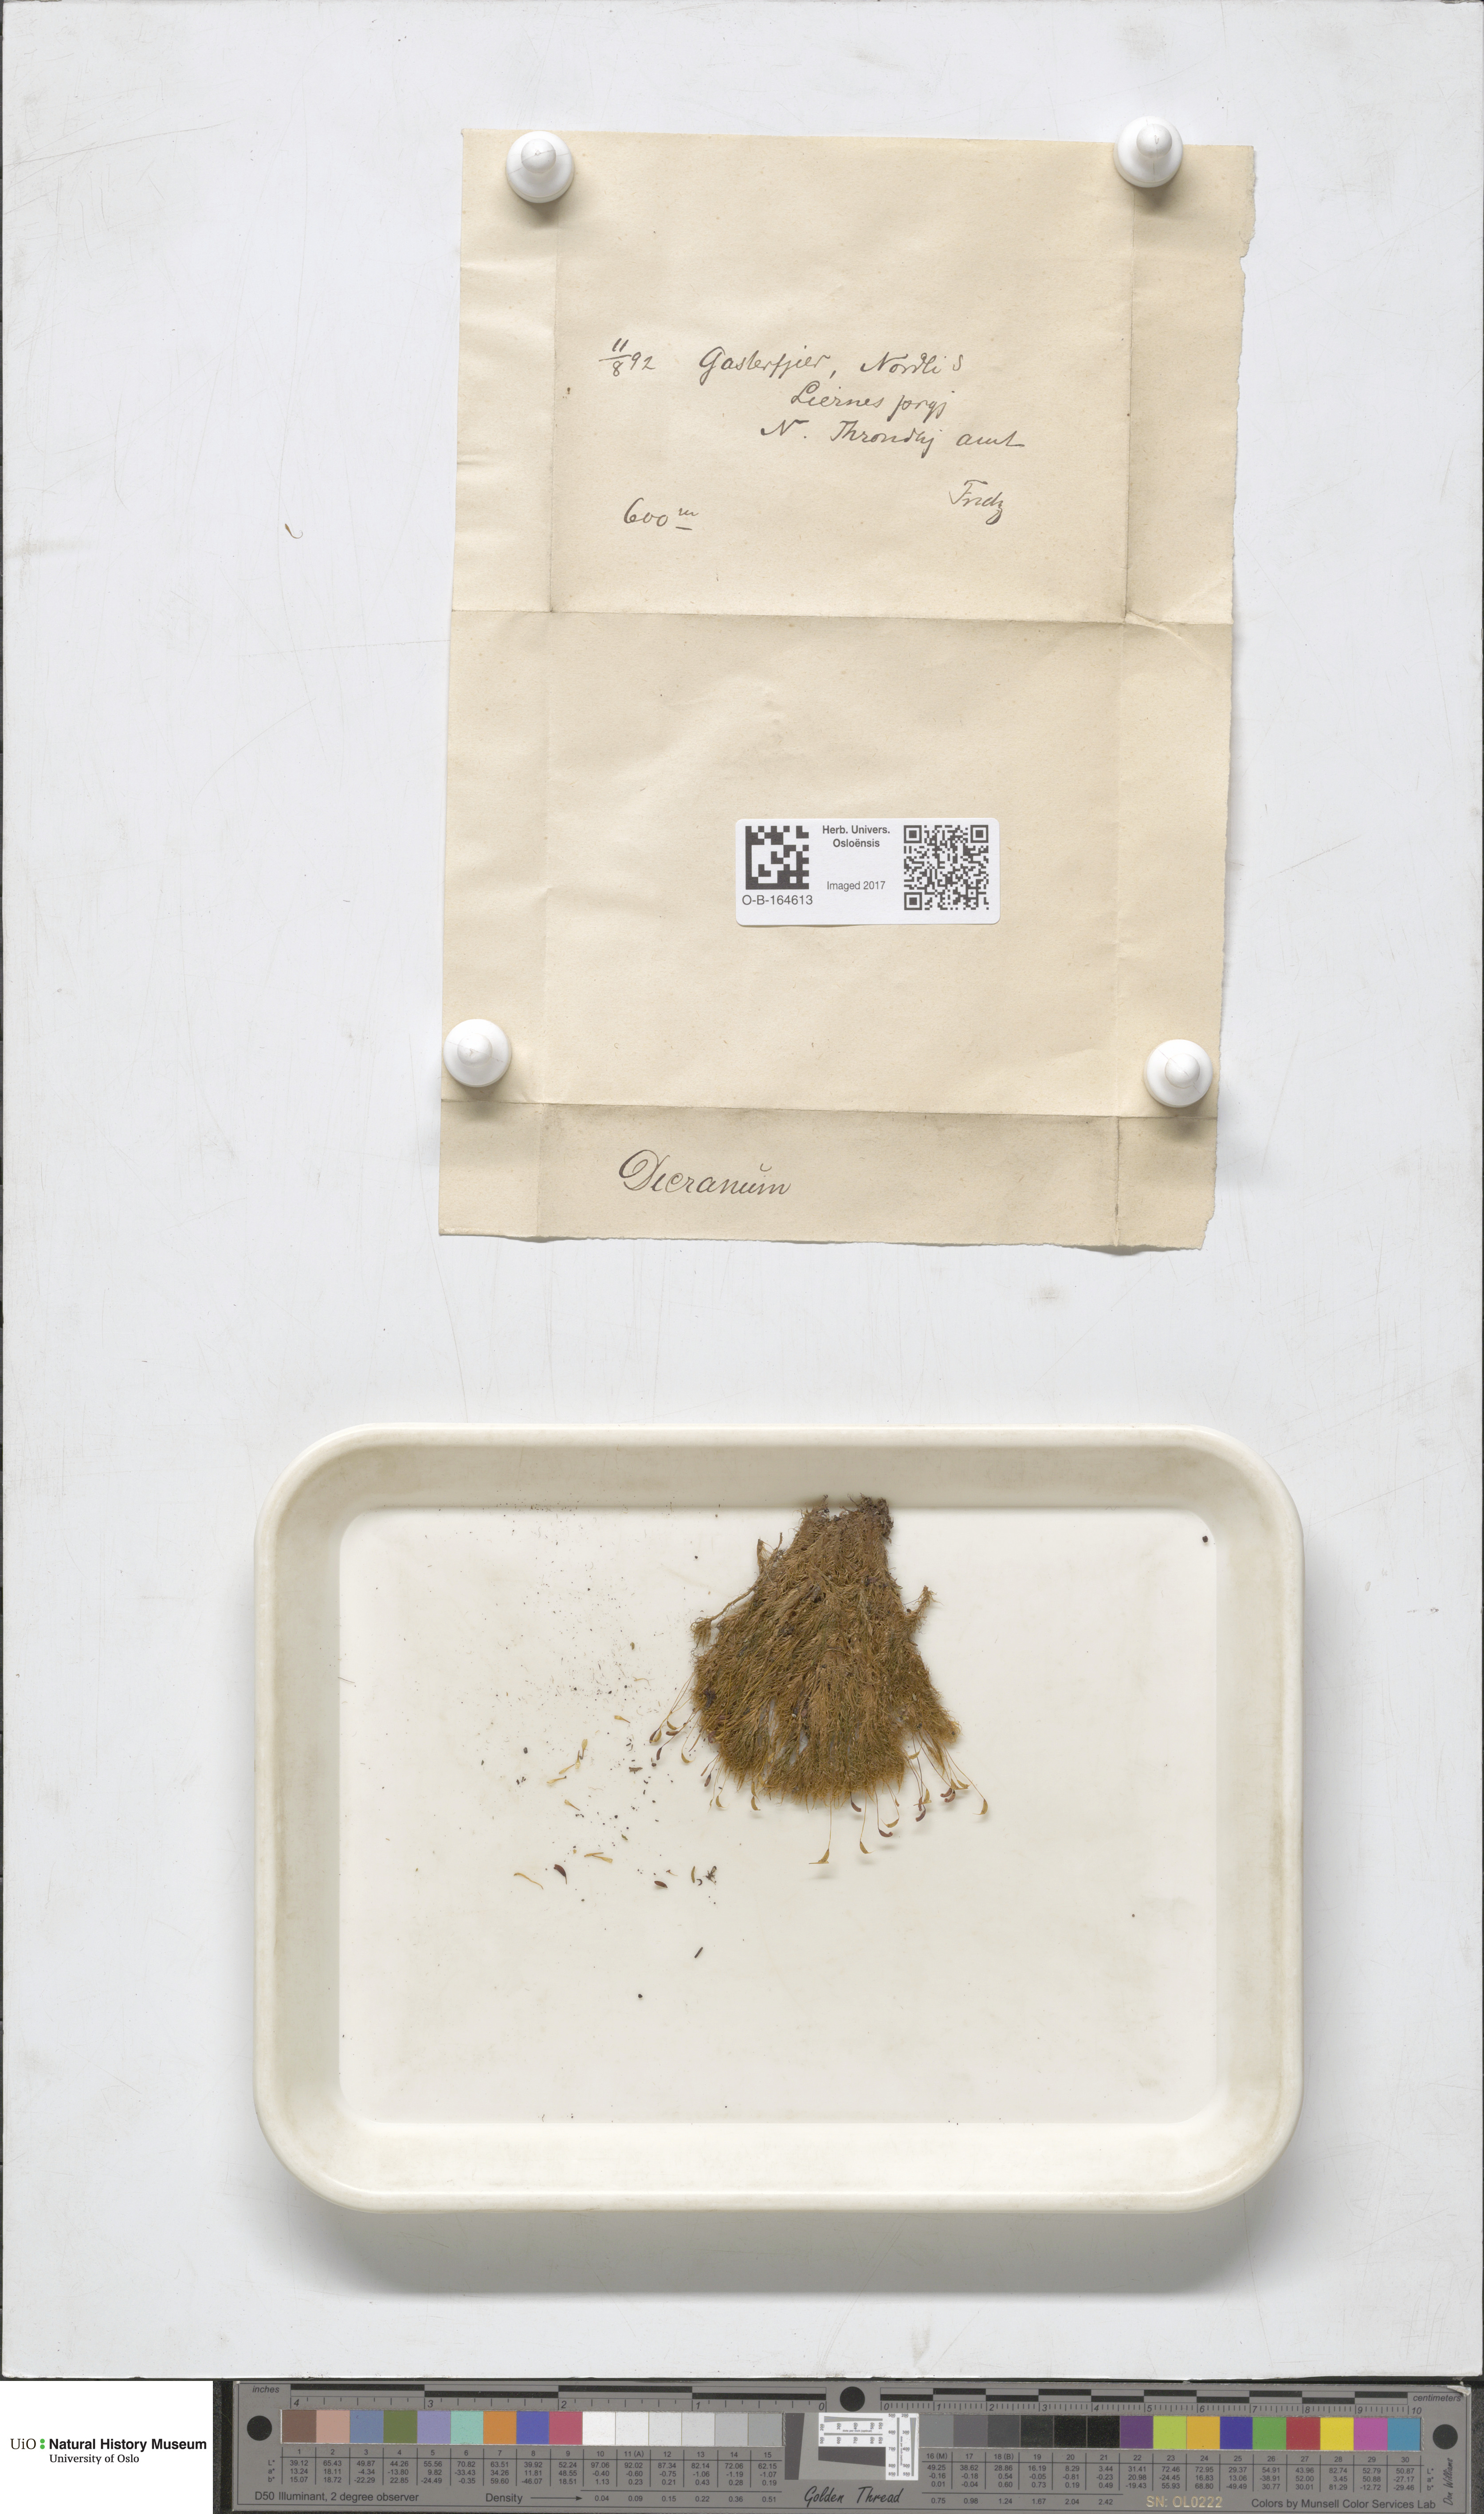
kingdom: Plantae
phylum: Bryophyta
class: Bryopsida
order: Dicranales
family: Dicranaceae
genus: Dicranum
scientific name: Dicranum
